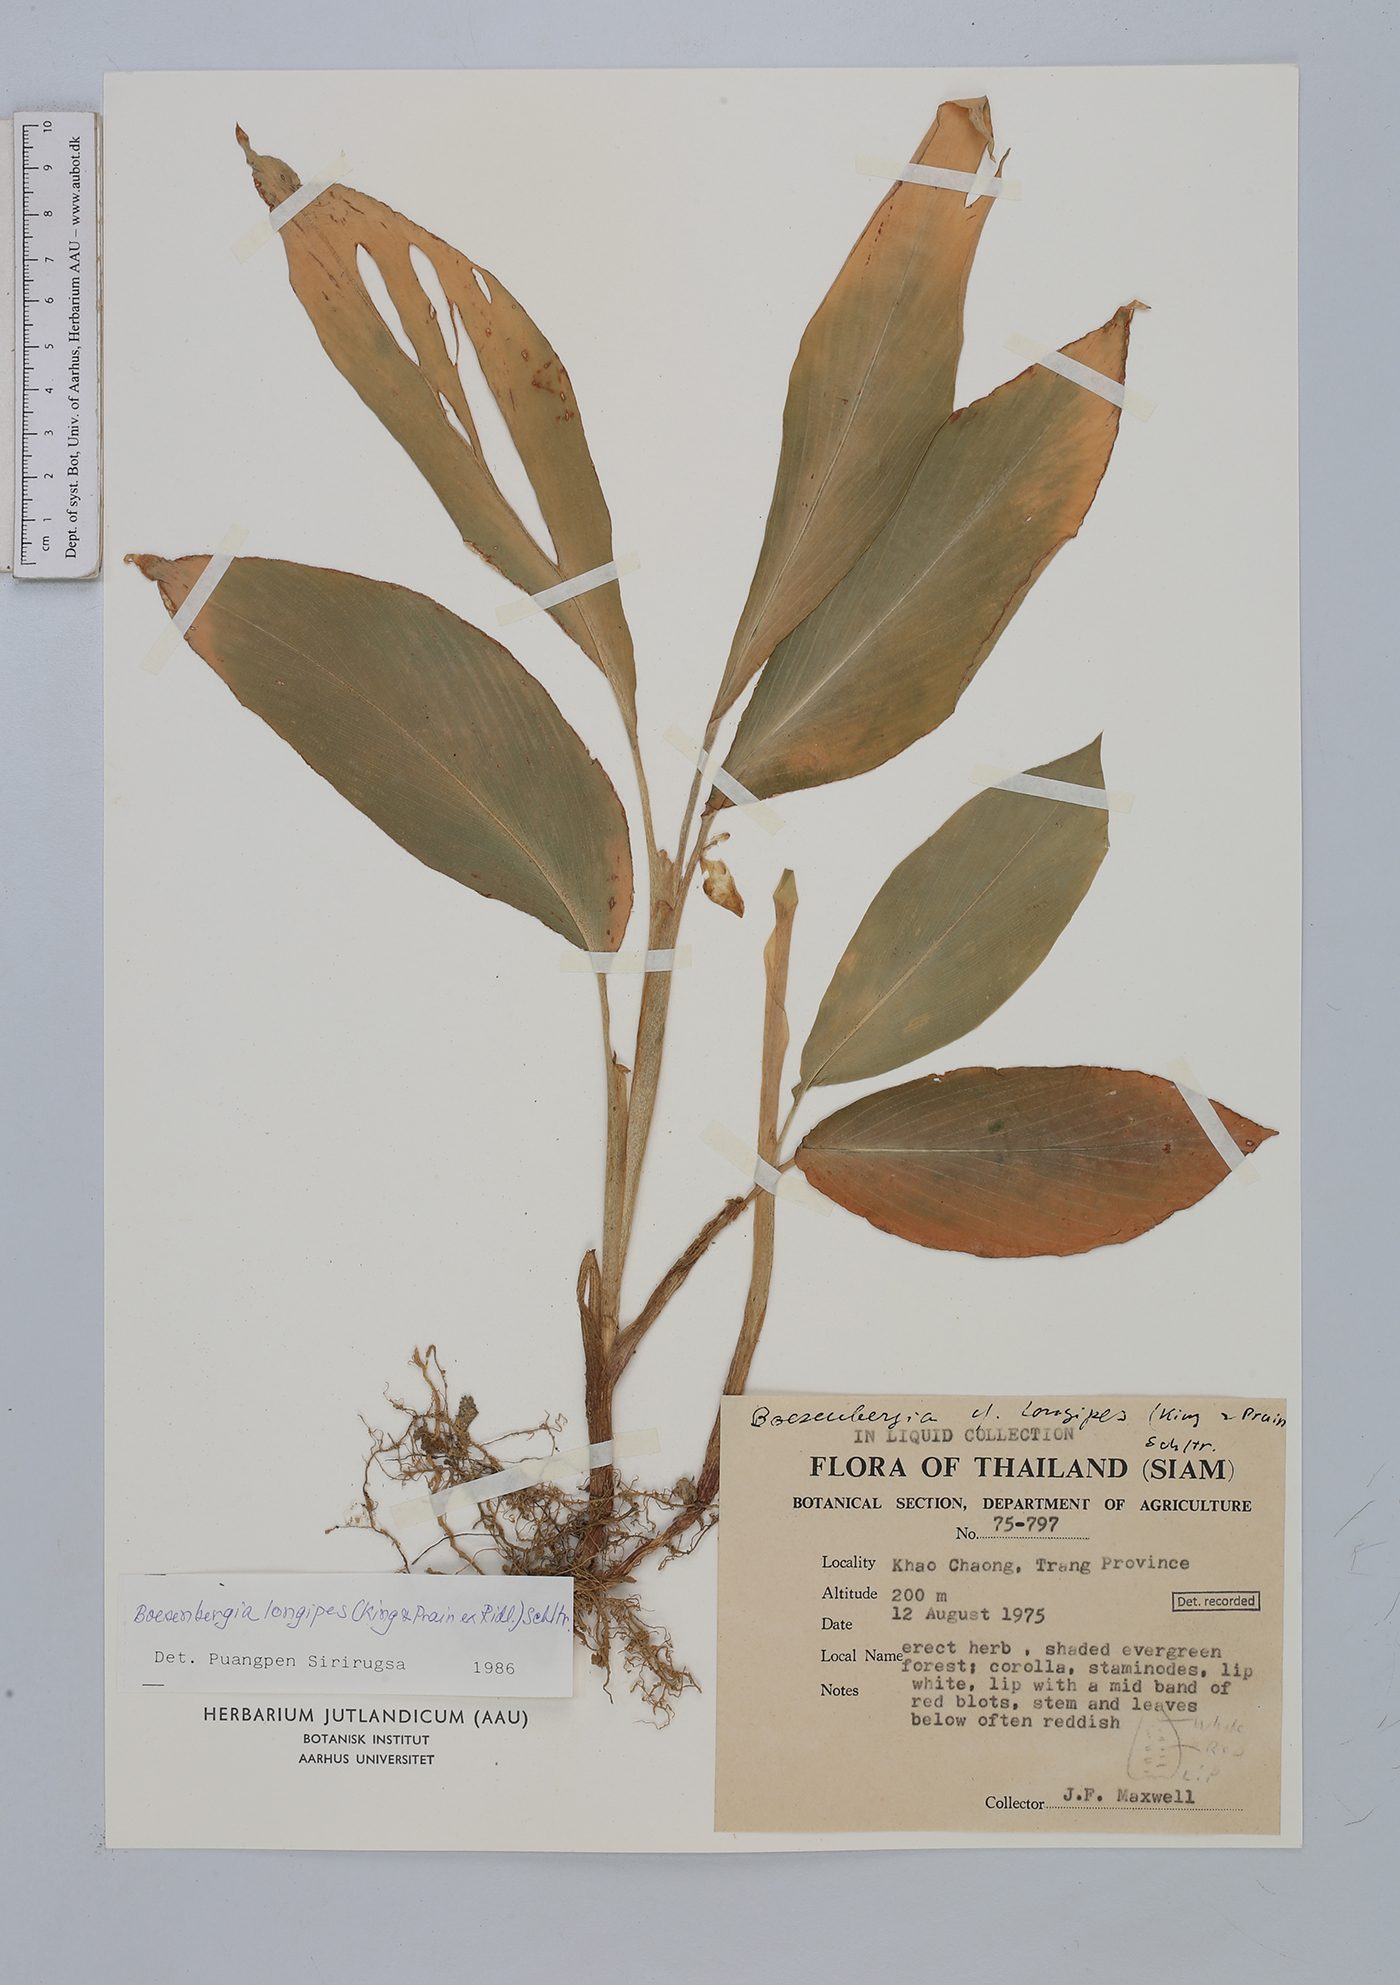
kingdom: Plantae
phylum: Tracheophyta
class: Liliopsida
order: Zingiberales
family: Zingiberaceae
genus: Boesenbergia
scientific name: Boesenbergia longipes
